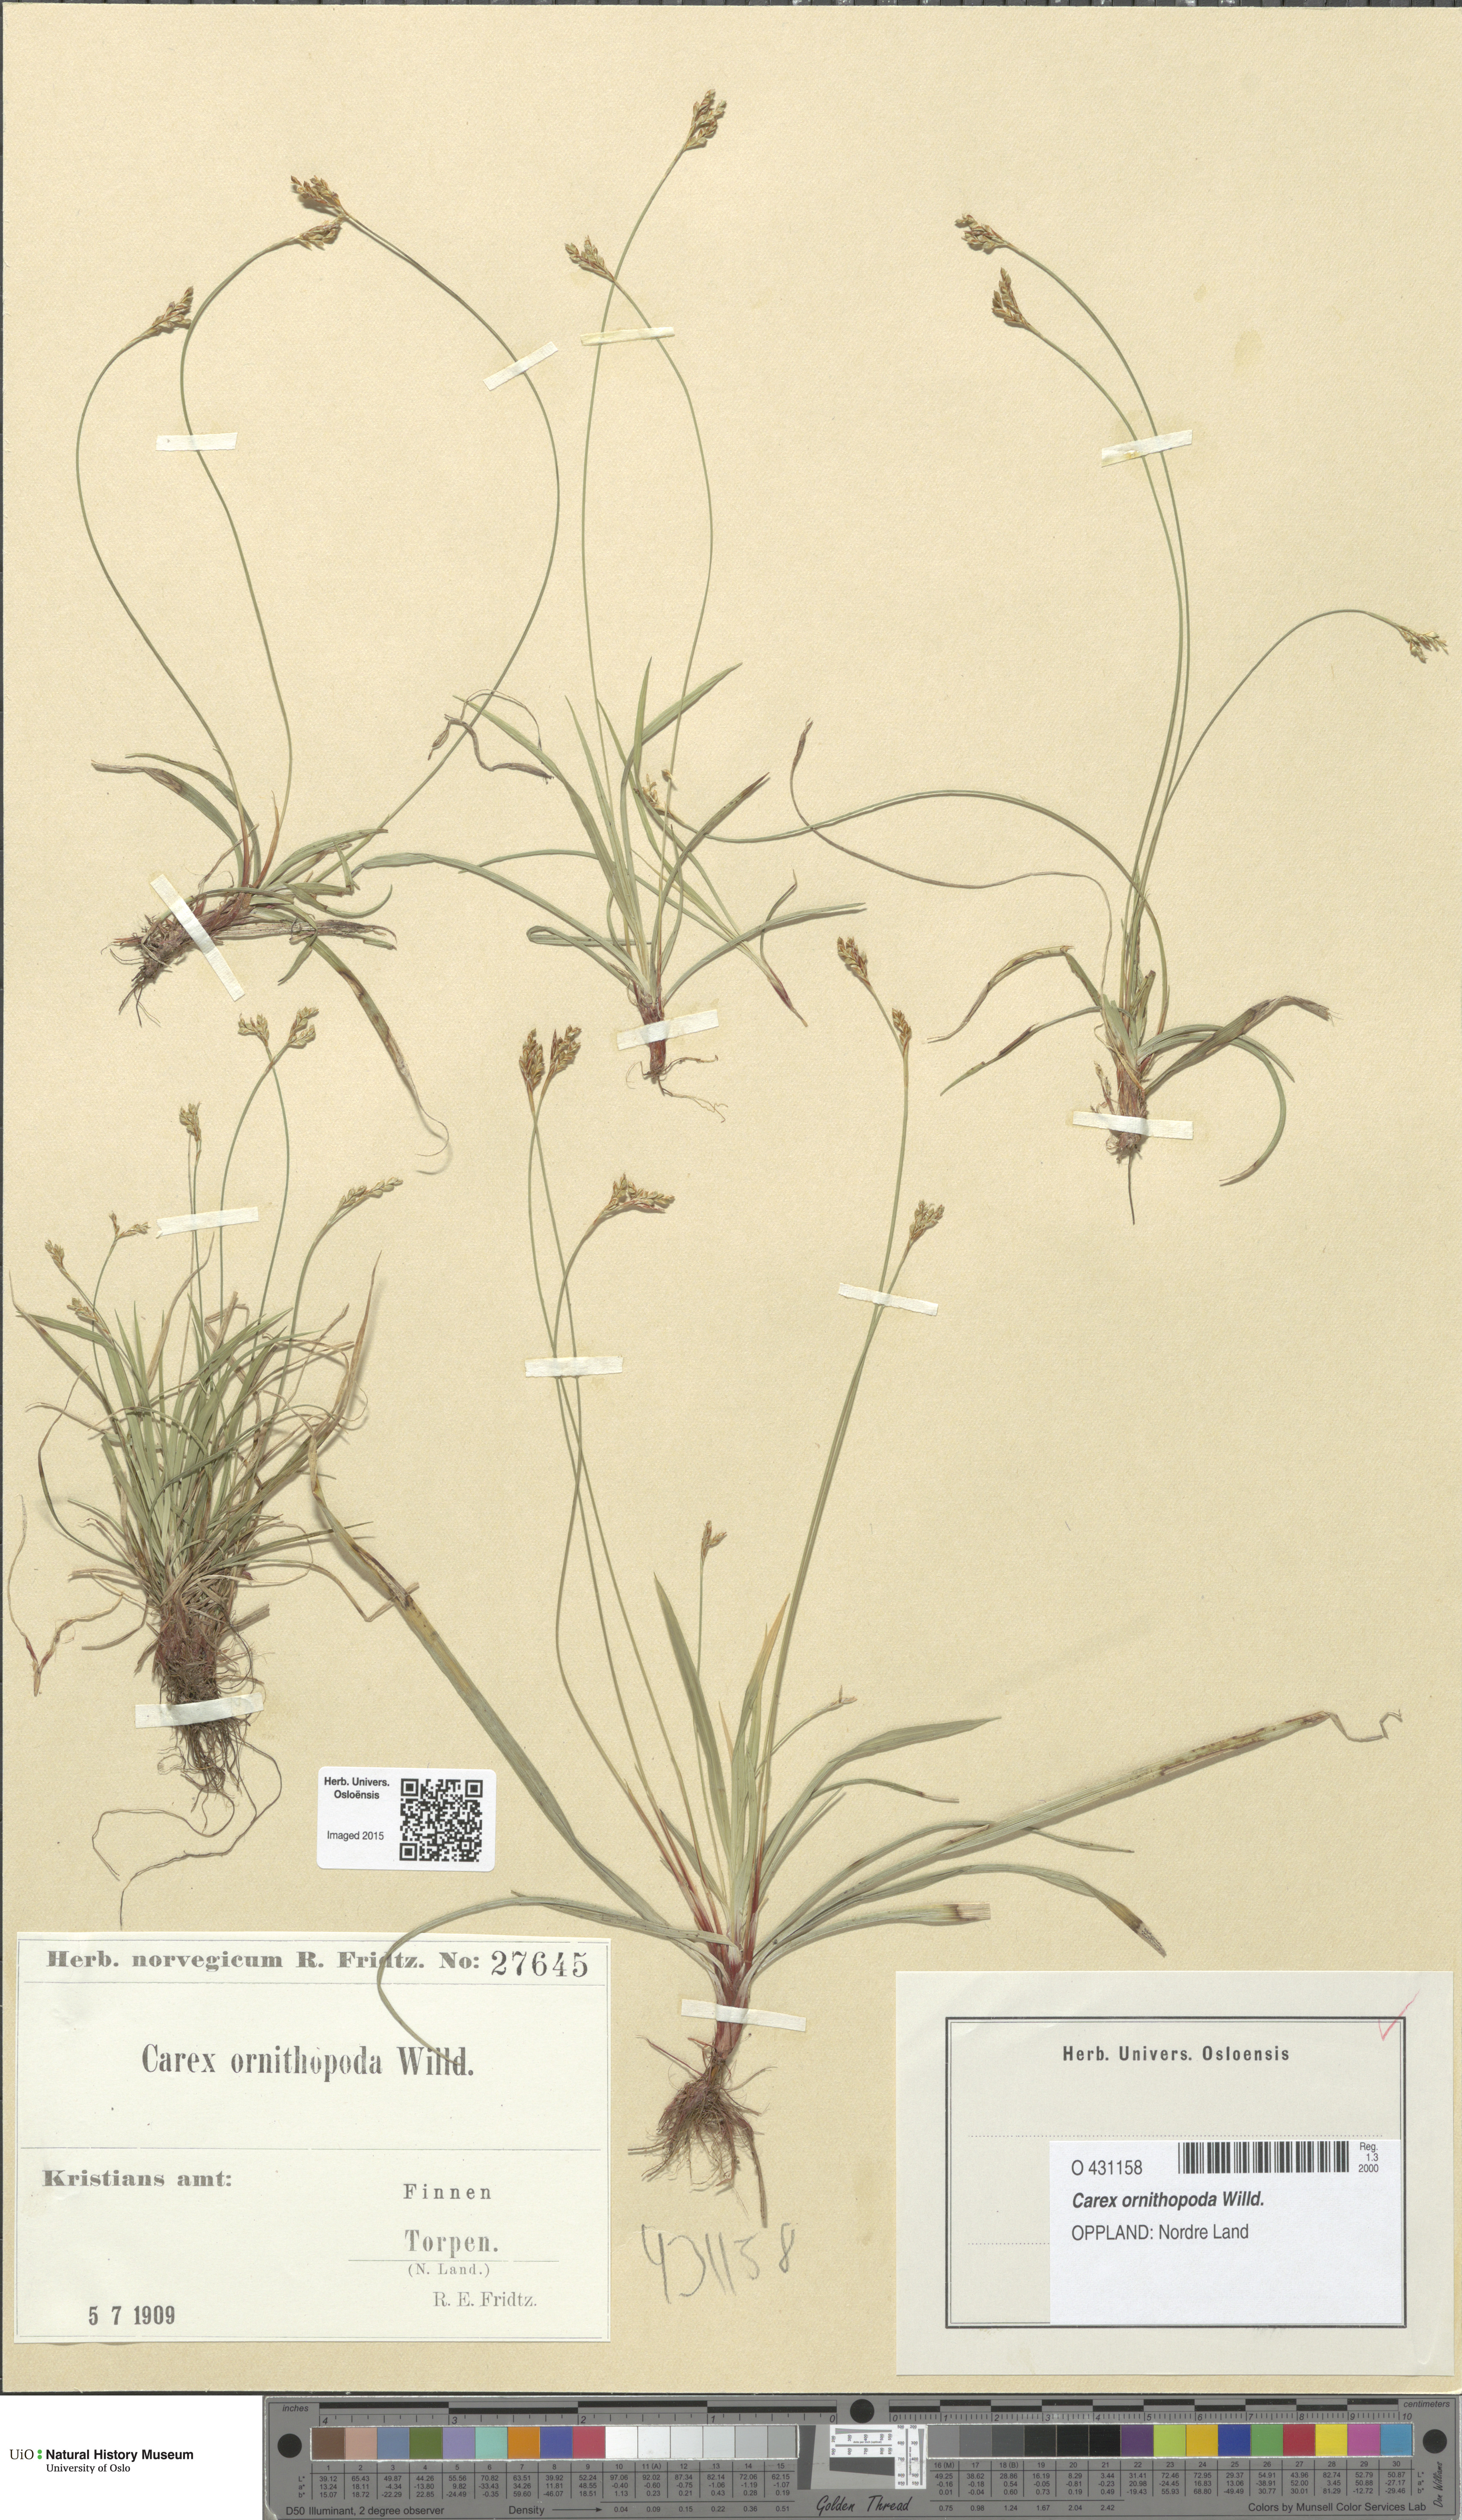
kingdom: Plantae
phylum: Tracheophyta
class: Liliopsida
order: Poales
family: Cyperaceae
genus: Carex
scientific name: Carex ornithopoda
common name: Bird's-foot sedge
